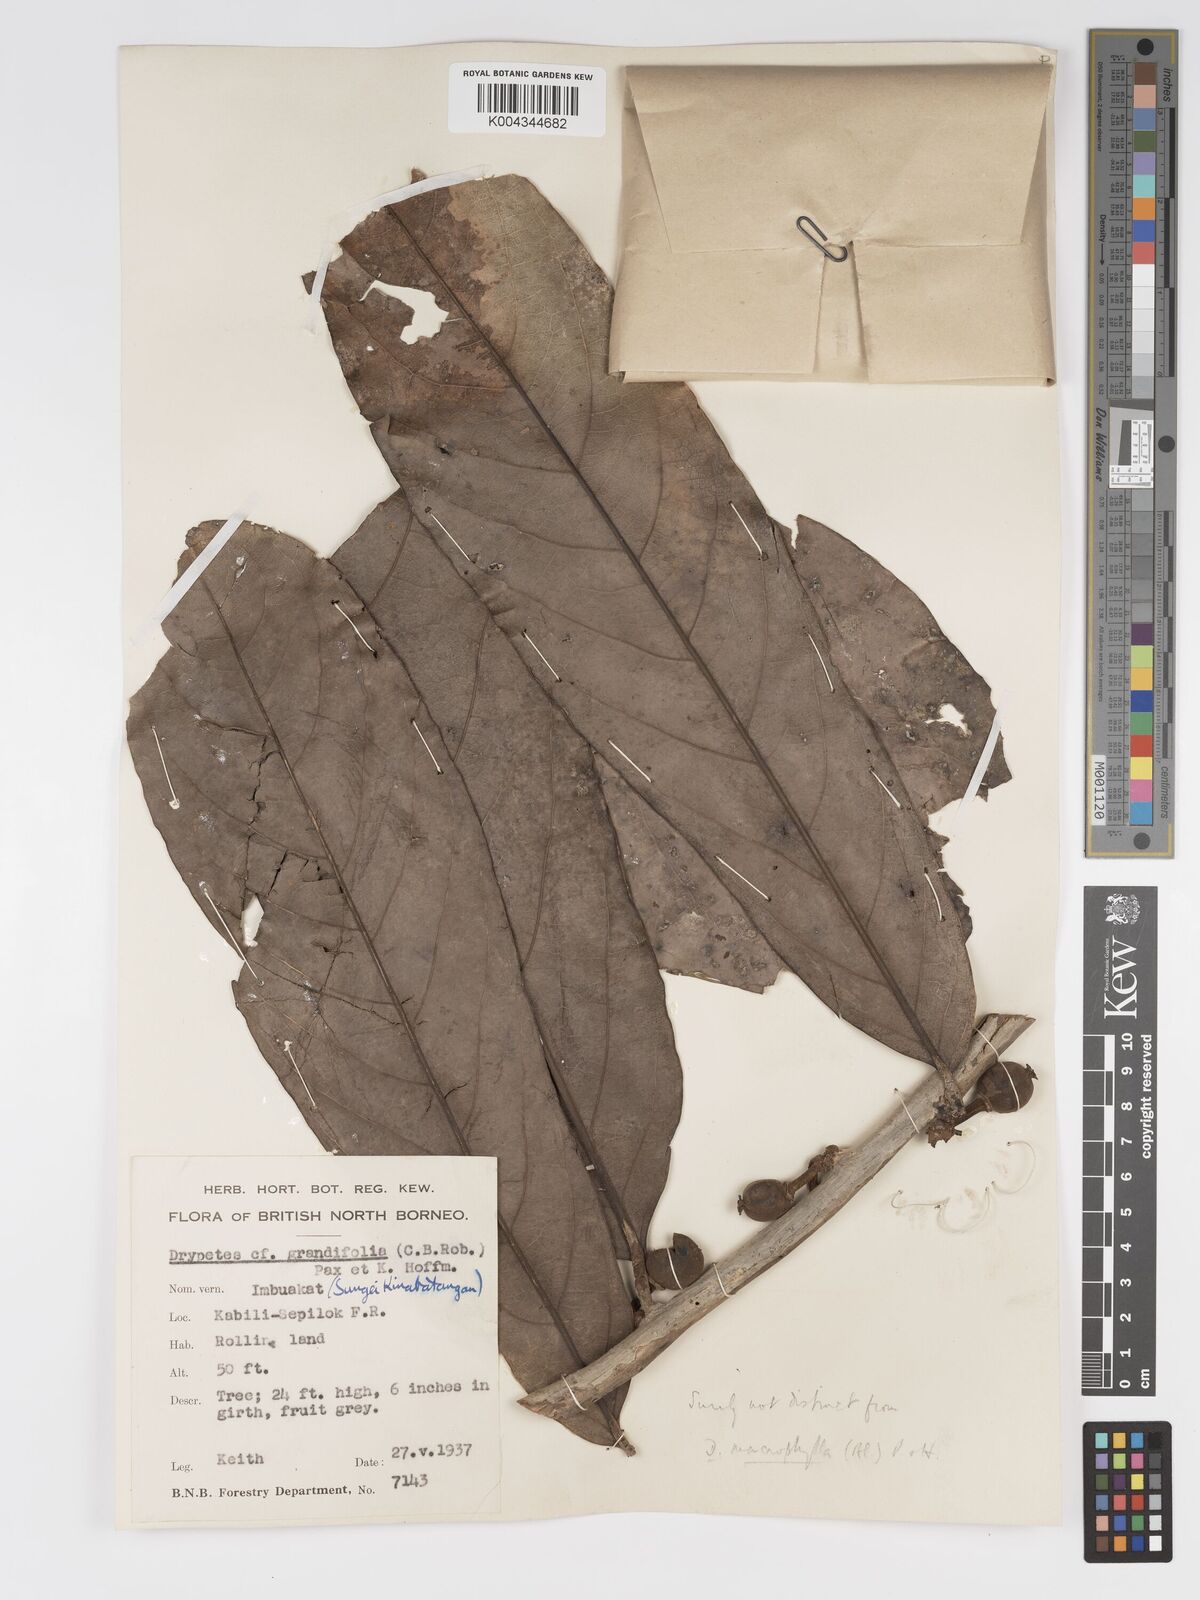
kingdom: Plantae
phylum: Tracheophyta
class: Magnoliopsida
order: Malpighiales
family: Putranjivaceae
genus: Drypetes
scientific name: Drypetes longifolia
